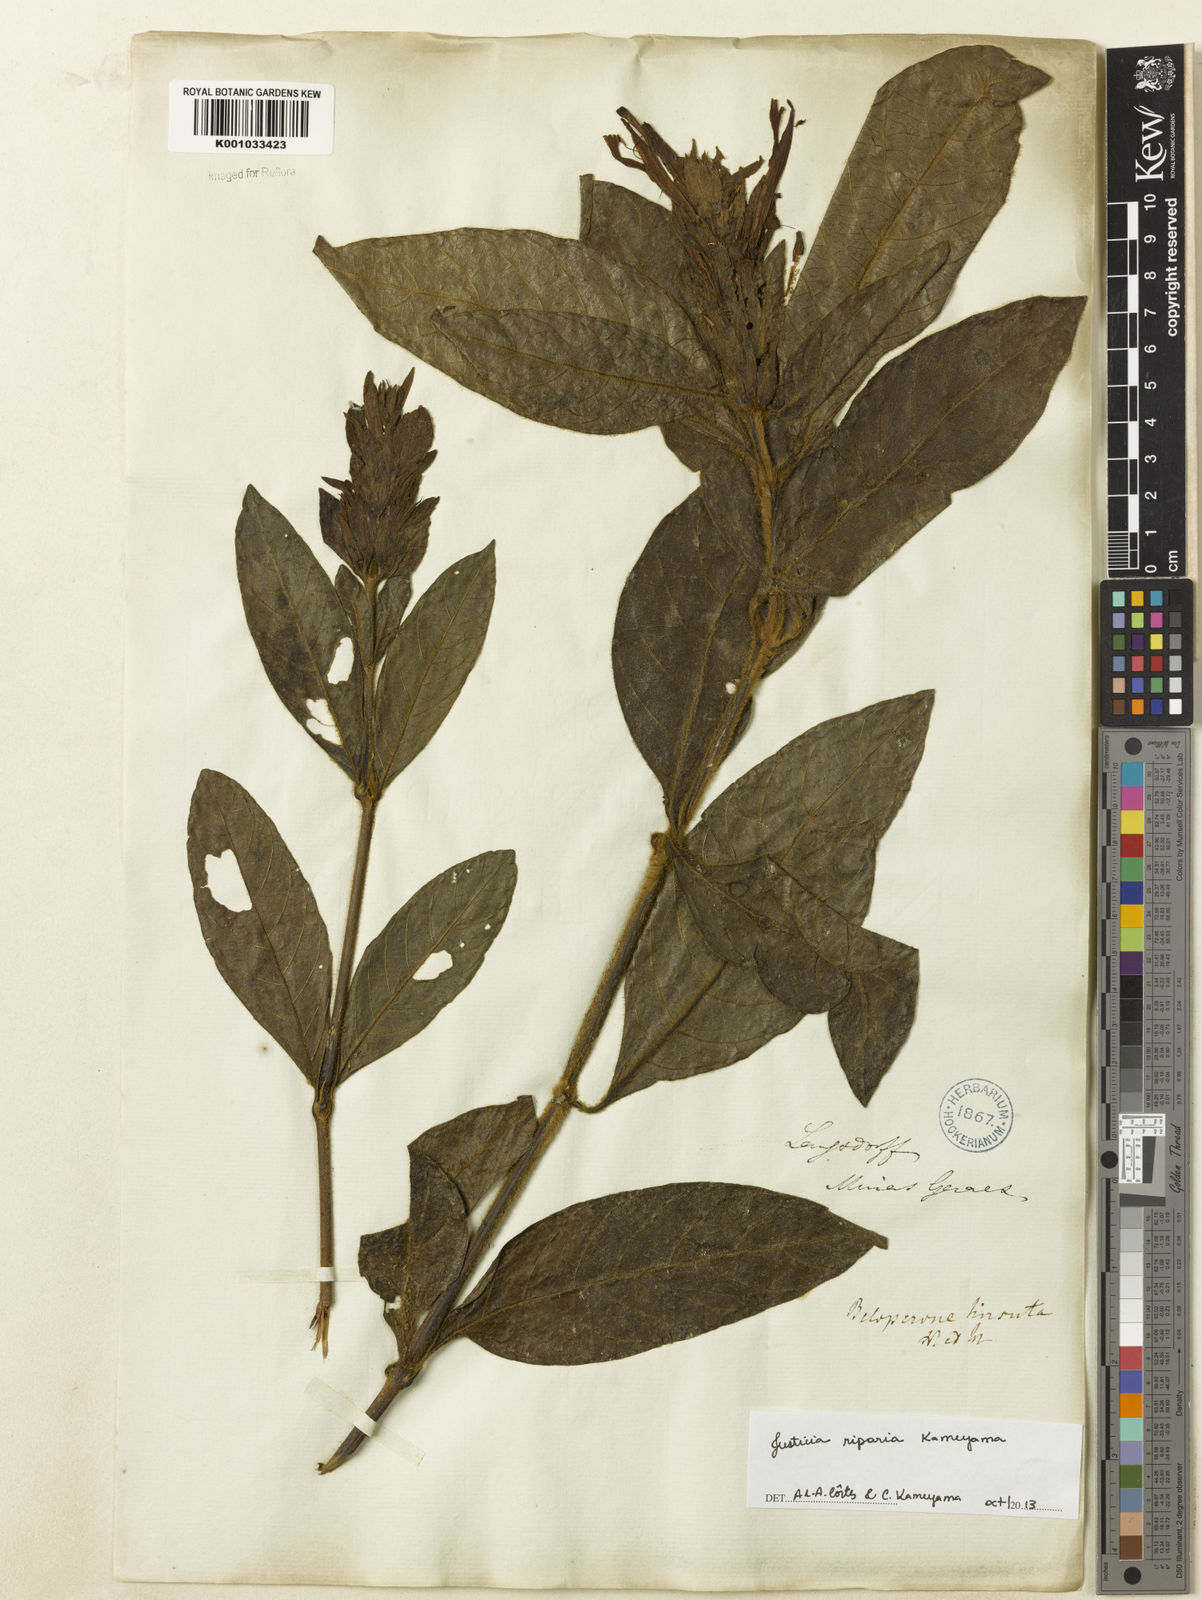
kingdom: Plantae
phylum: Tracheophyta
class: Magnoliopsida
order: Lamiales
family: Acanthaceae
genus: Justicia
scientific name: Justicia riparia
